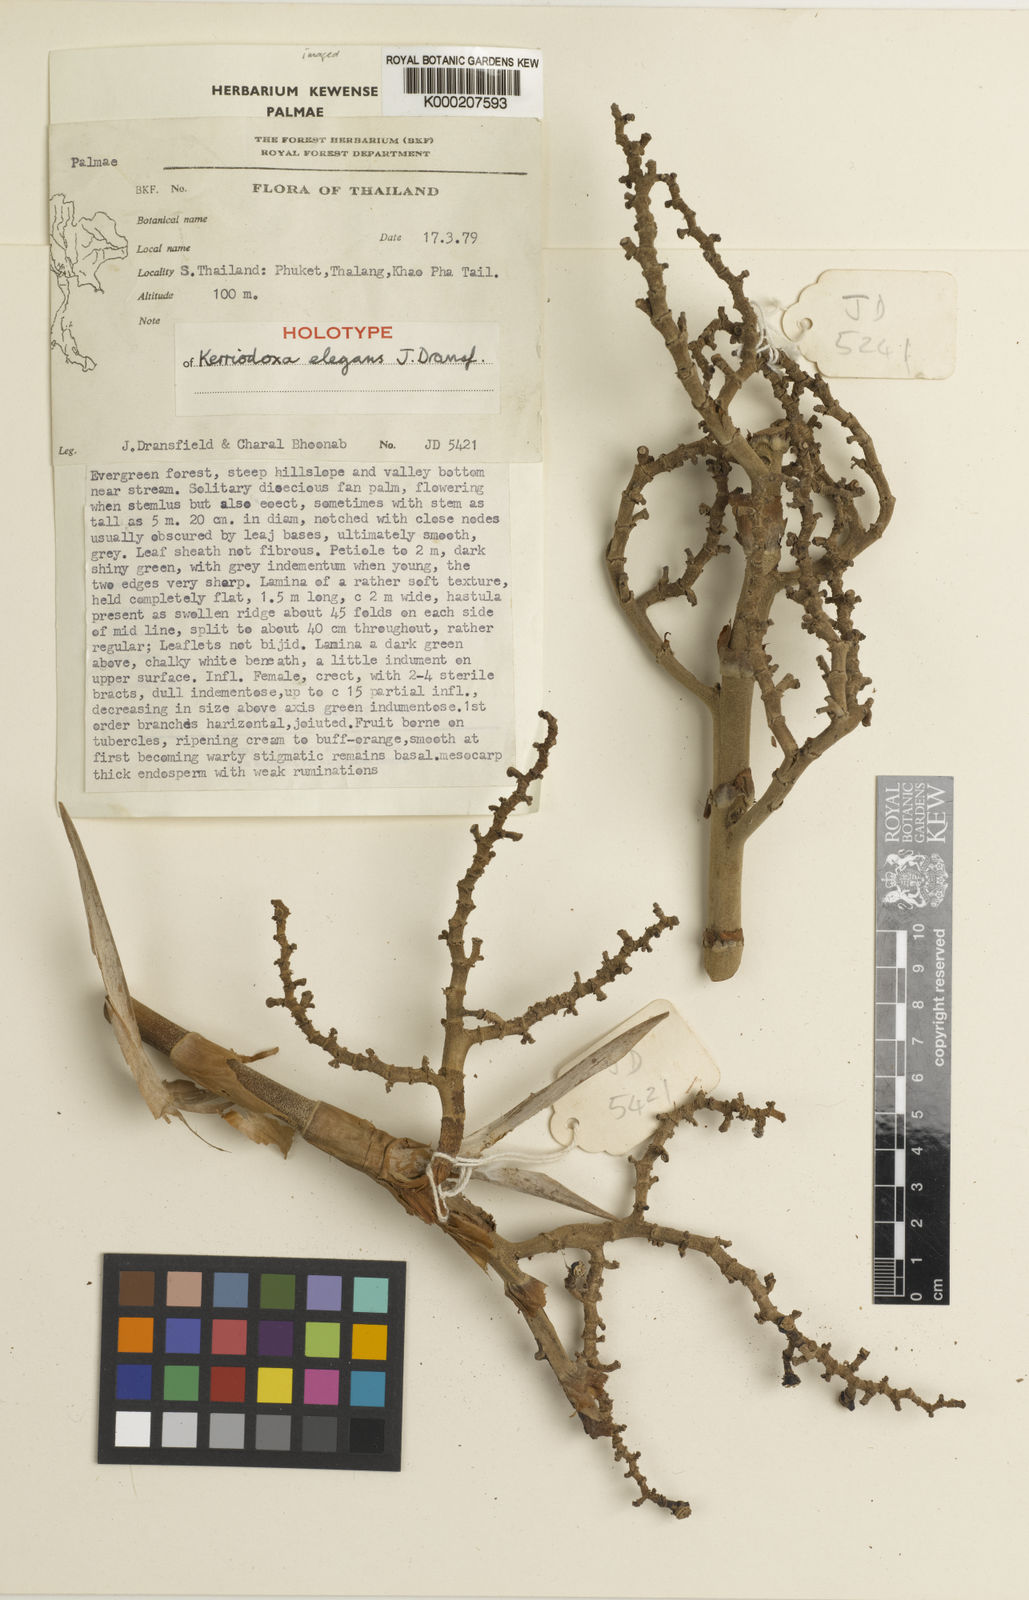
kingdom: Plantae
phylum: Tracheophyta
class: Liliopsida
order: Arecales
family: Arecaceae
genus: Kerriodoxa
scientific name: Kerriodoxa elegans
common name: Elephant palm
